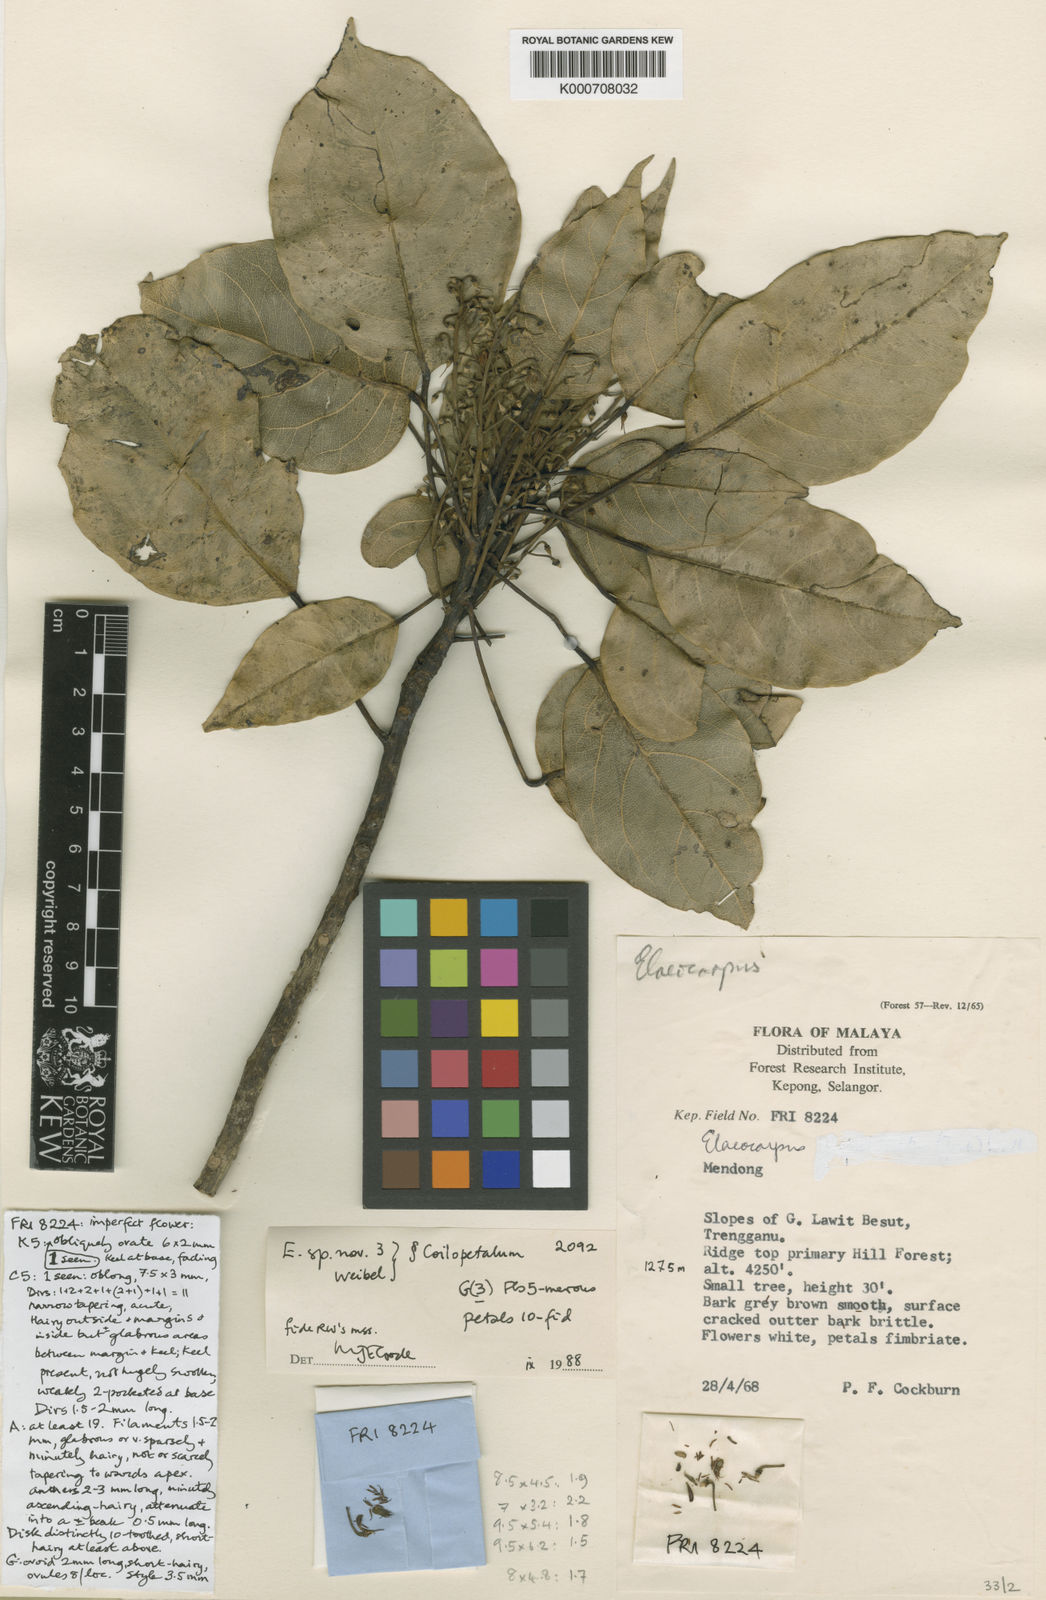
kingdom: Plantae
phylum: Tracheophyta
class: Magnoliopsida
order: Oxalidales
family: Elaeocarpaceae
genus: Elaeocarpus
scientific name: Elaeocarpus
